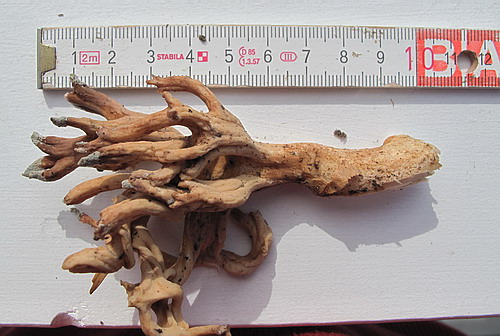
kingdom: Fungi
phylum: Basidiomycota
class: Agaricomycetes
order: Gomphales
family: Gomphaceae
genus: Ramaria
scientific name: Ramaria
